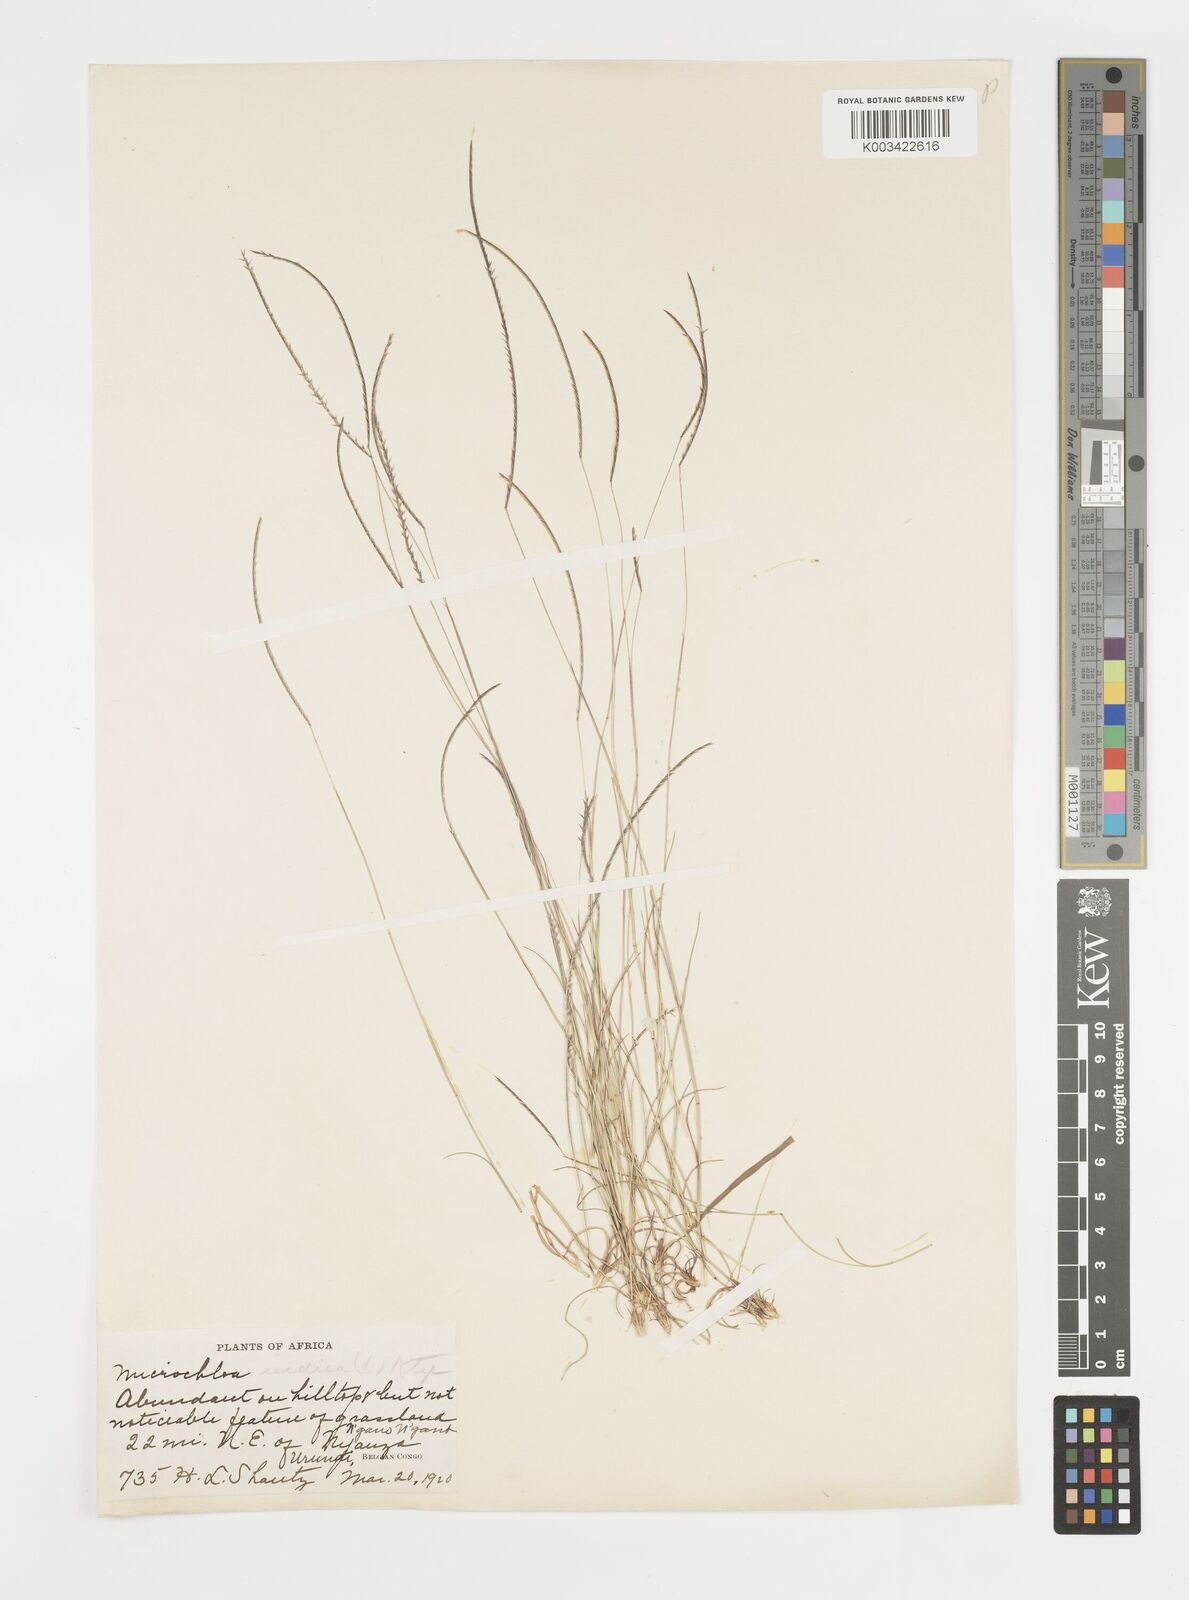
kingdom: Plantae
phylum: Tracheophyta
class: Liliopsida
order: Poales
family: Poaceae
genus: Microchloa
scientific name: Microchloa kunthii
